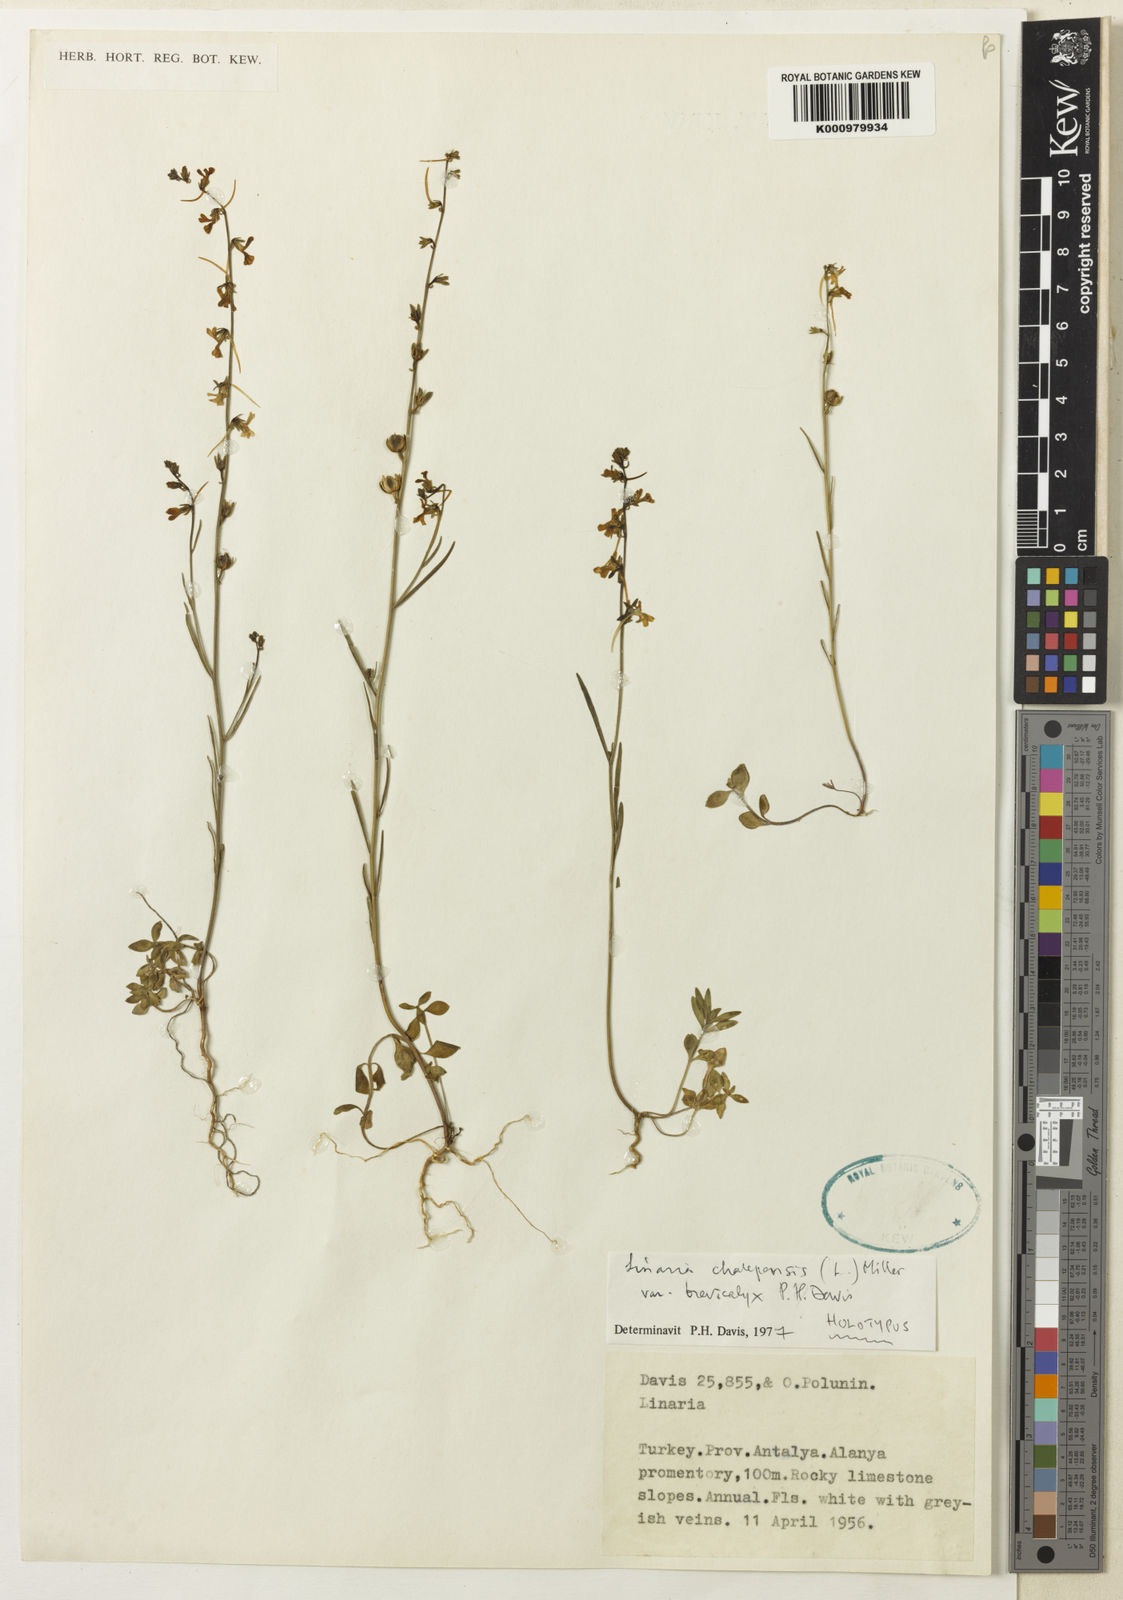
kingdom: Plantae
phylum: Tracheophyta
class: Magnoliopsida
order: Lamiales
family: Plantaginaceae
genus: Linaria
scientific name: Linaria chalepensis
